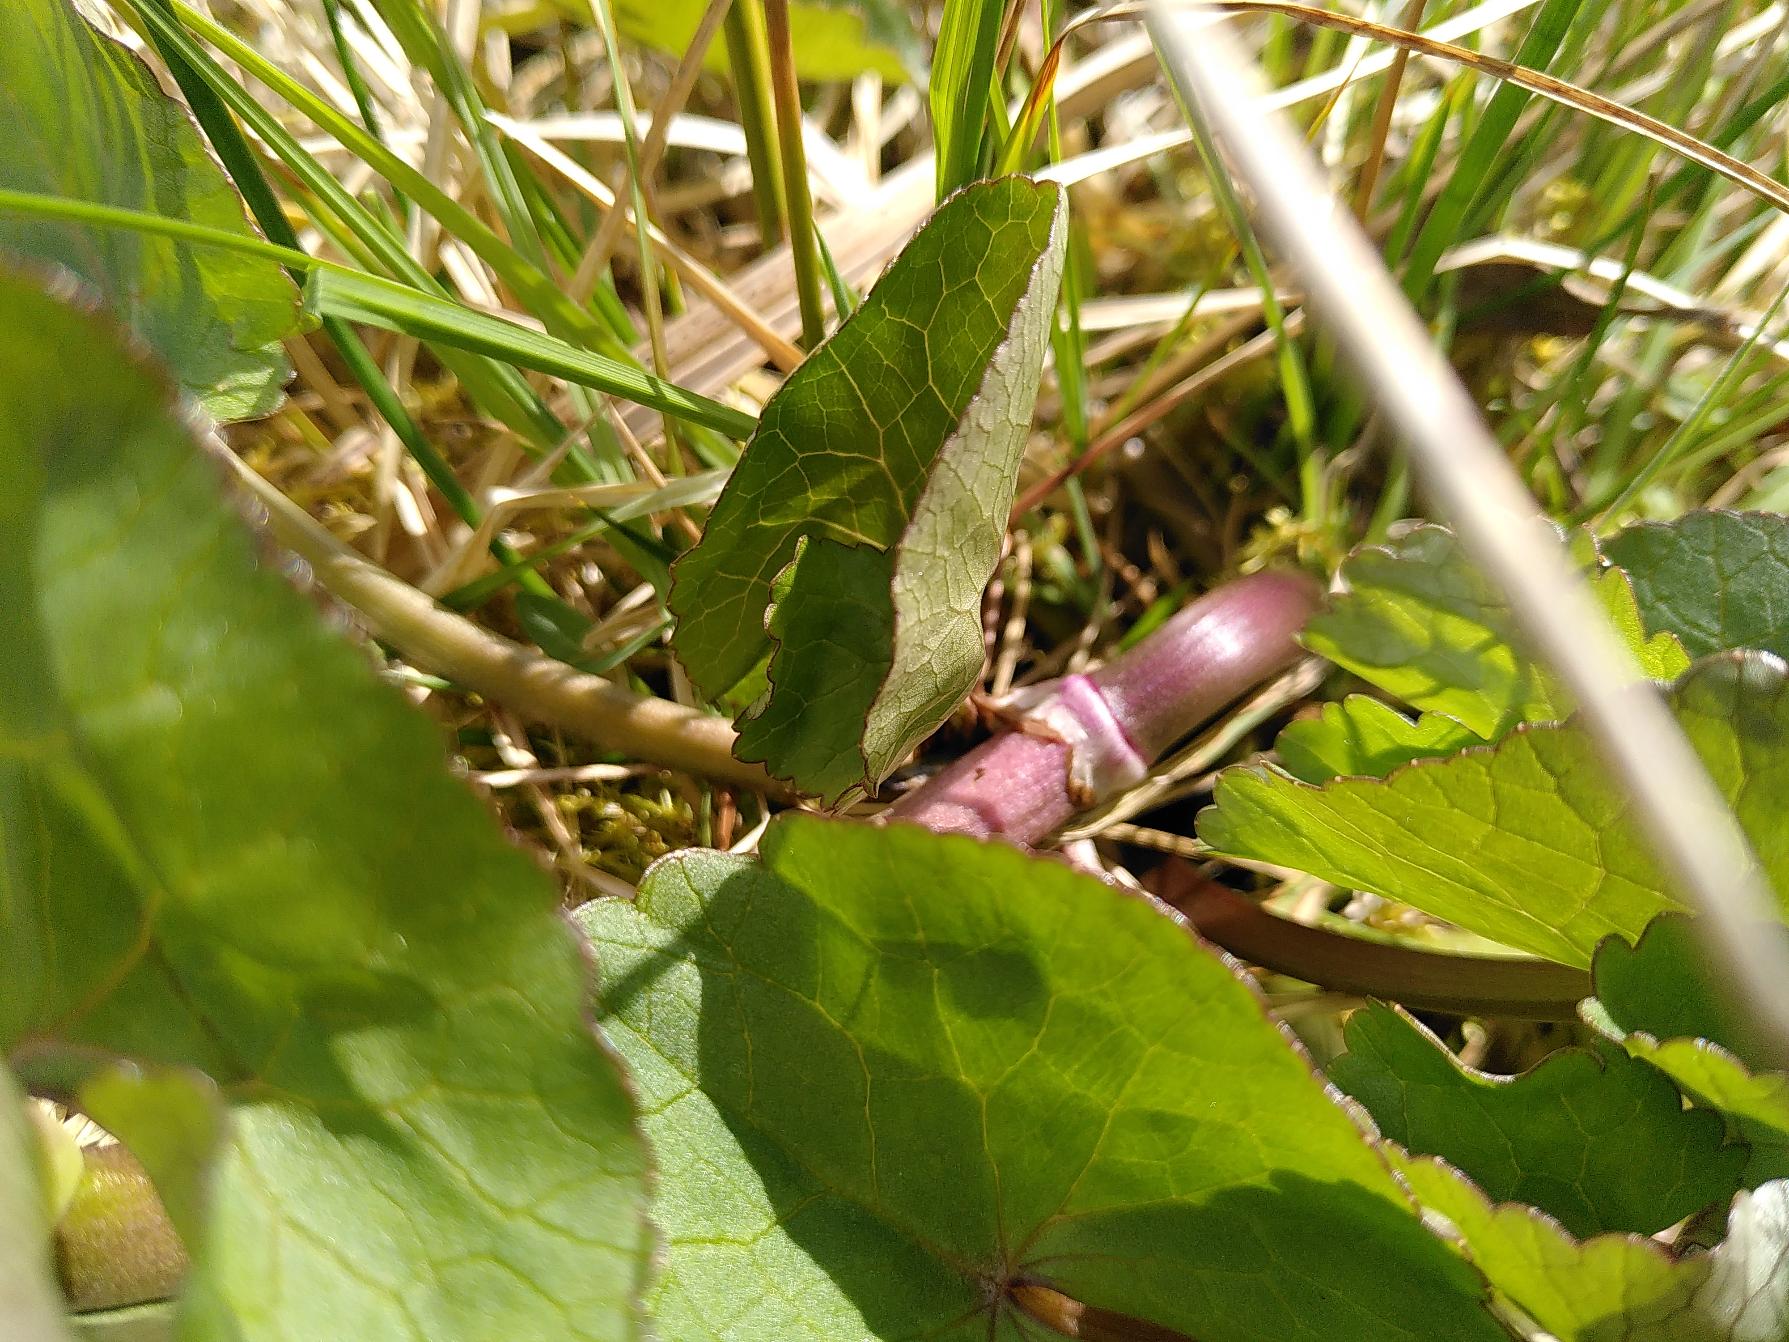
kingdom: Plantae
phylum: Tracheophyta
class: Magnoliopsida
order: Ranunculales
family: Ranunculaceae
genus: Caltha
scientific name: Caltha palustris
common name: Eng-kabbeleje
